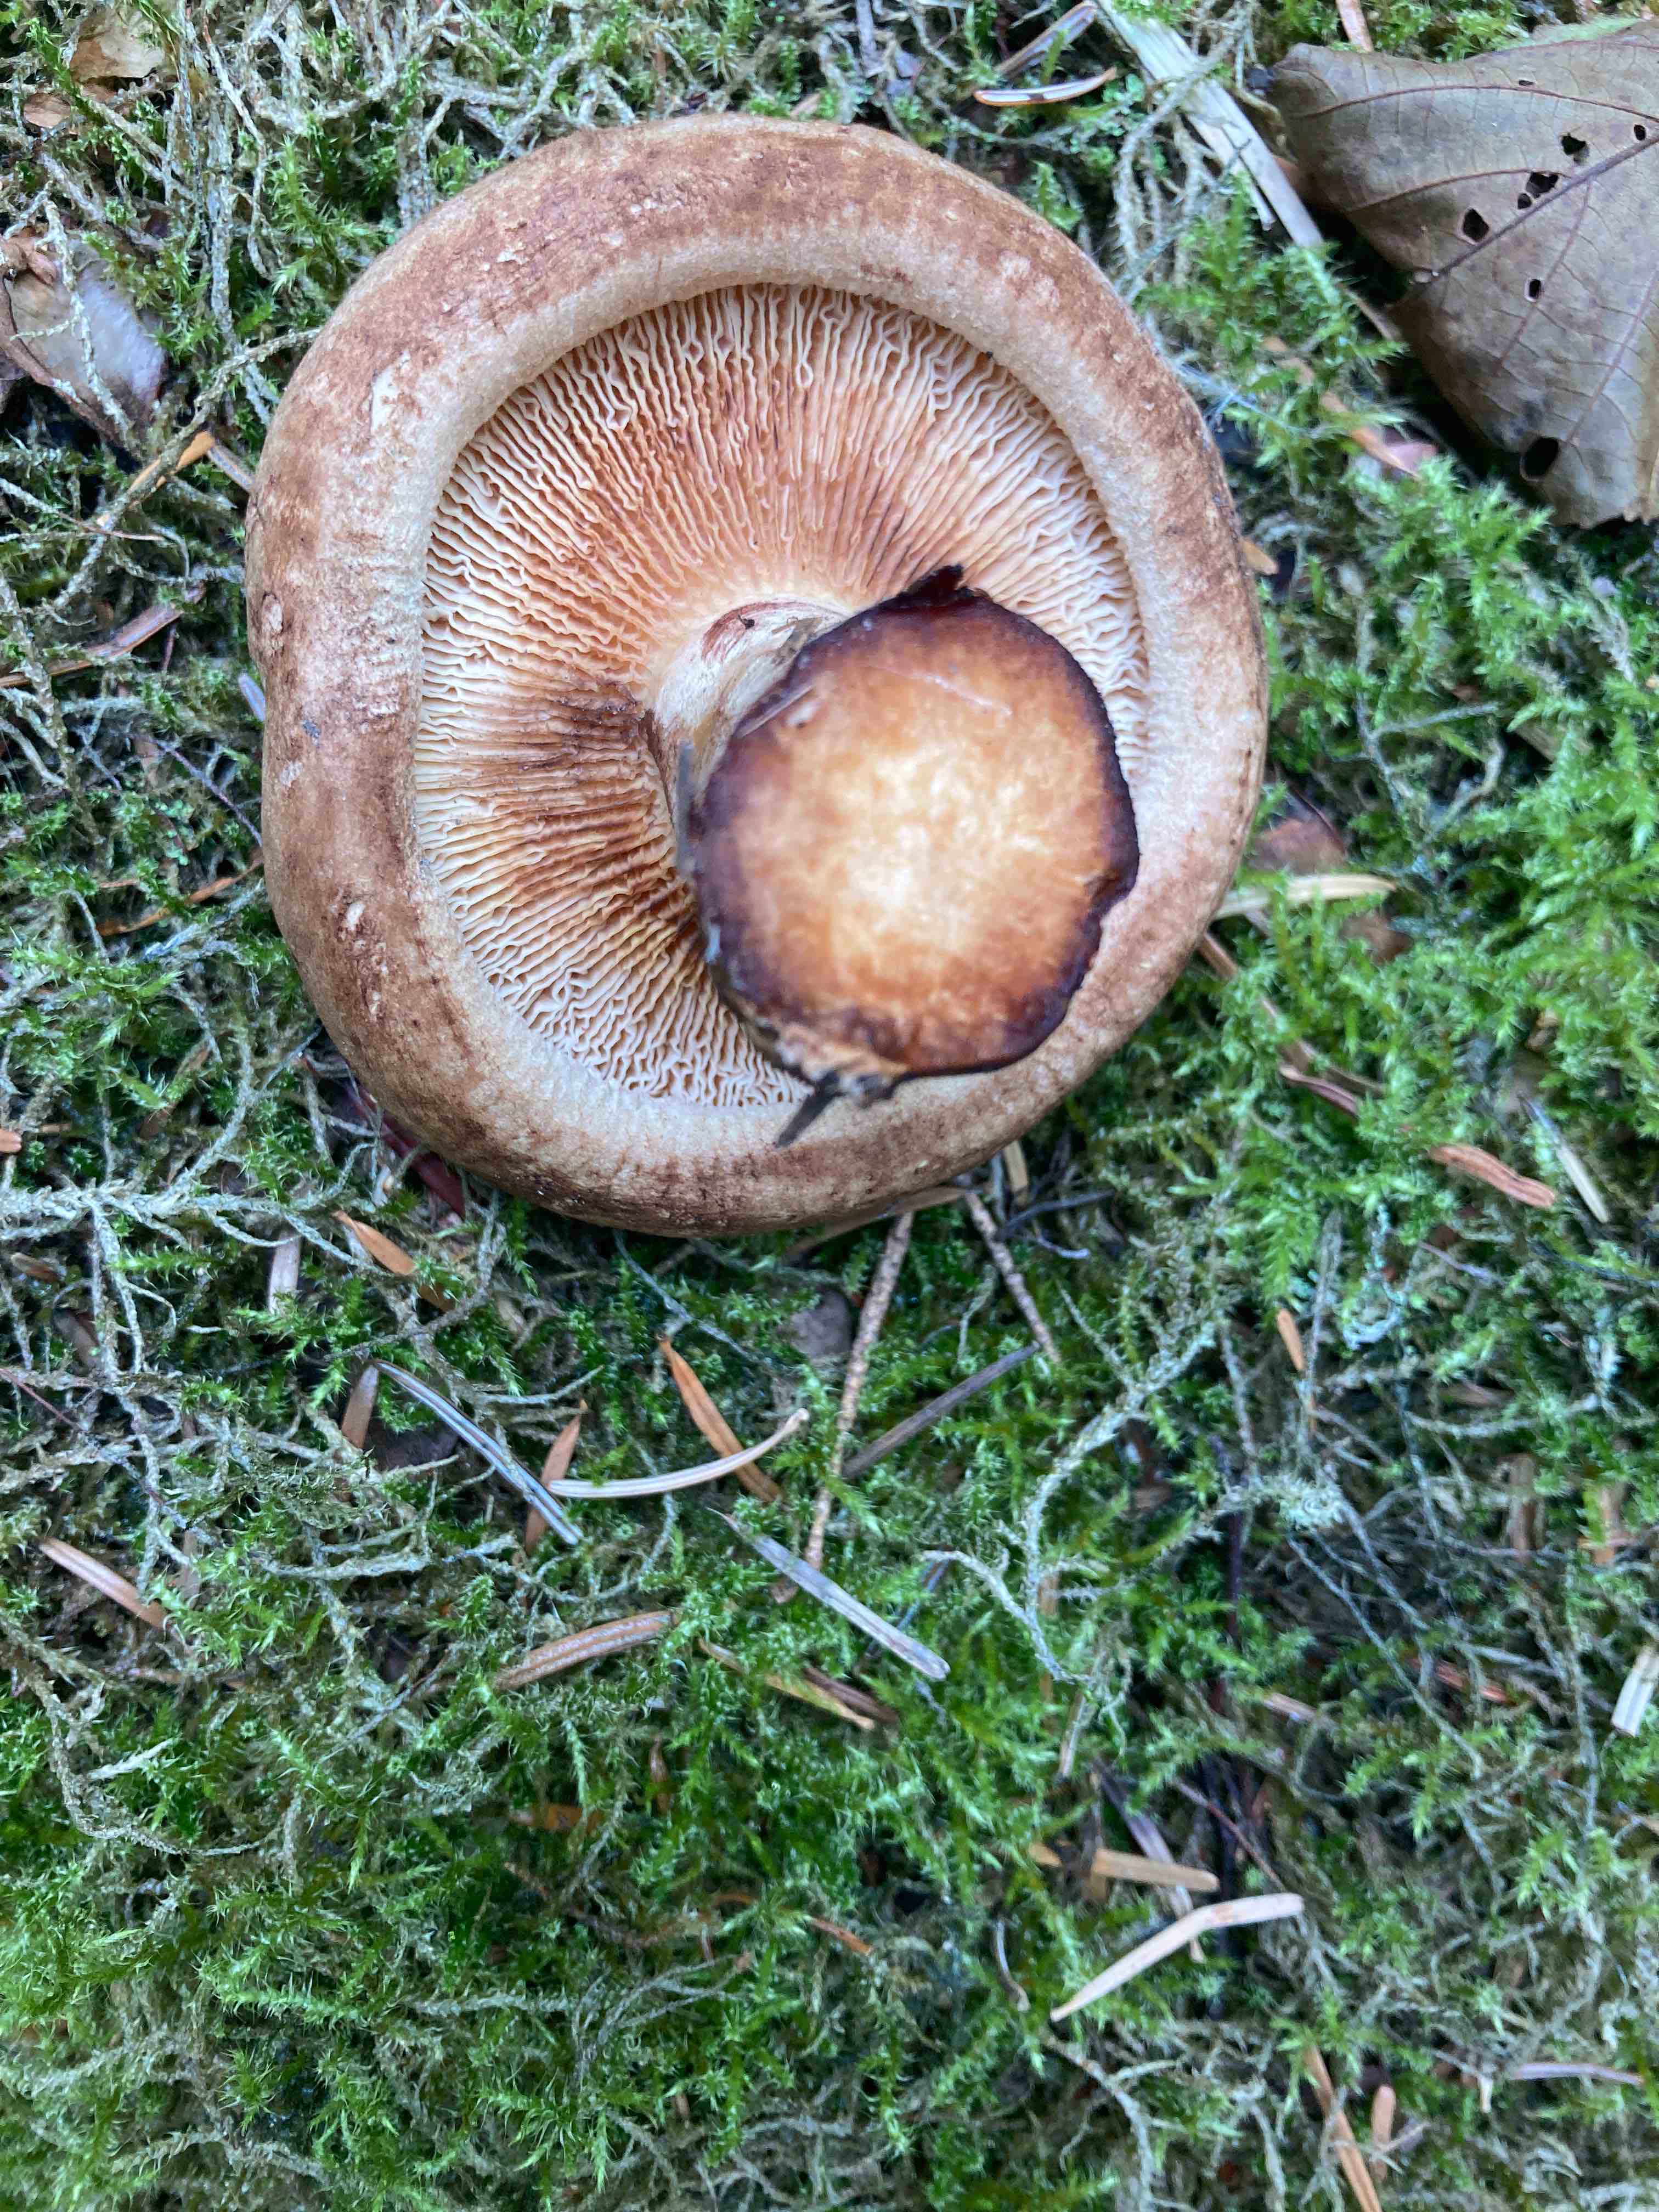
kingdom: Fungi
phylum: Basidiomycota
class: Agaricomycetes
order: Boletales
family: Paxillaceae
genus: Paxillus
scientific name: Paxillus
